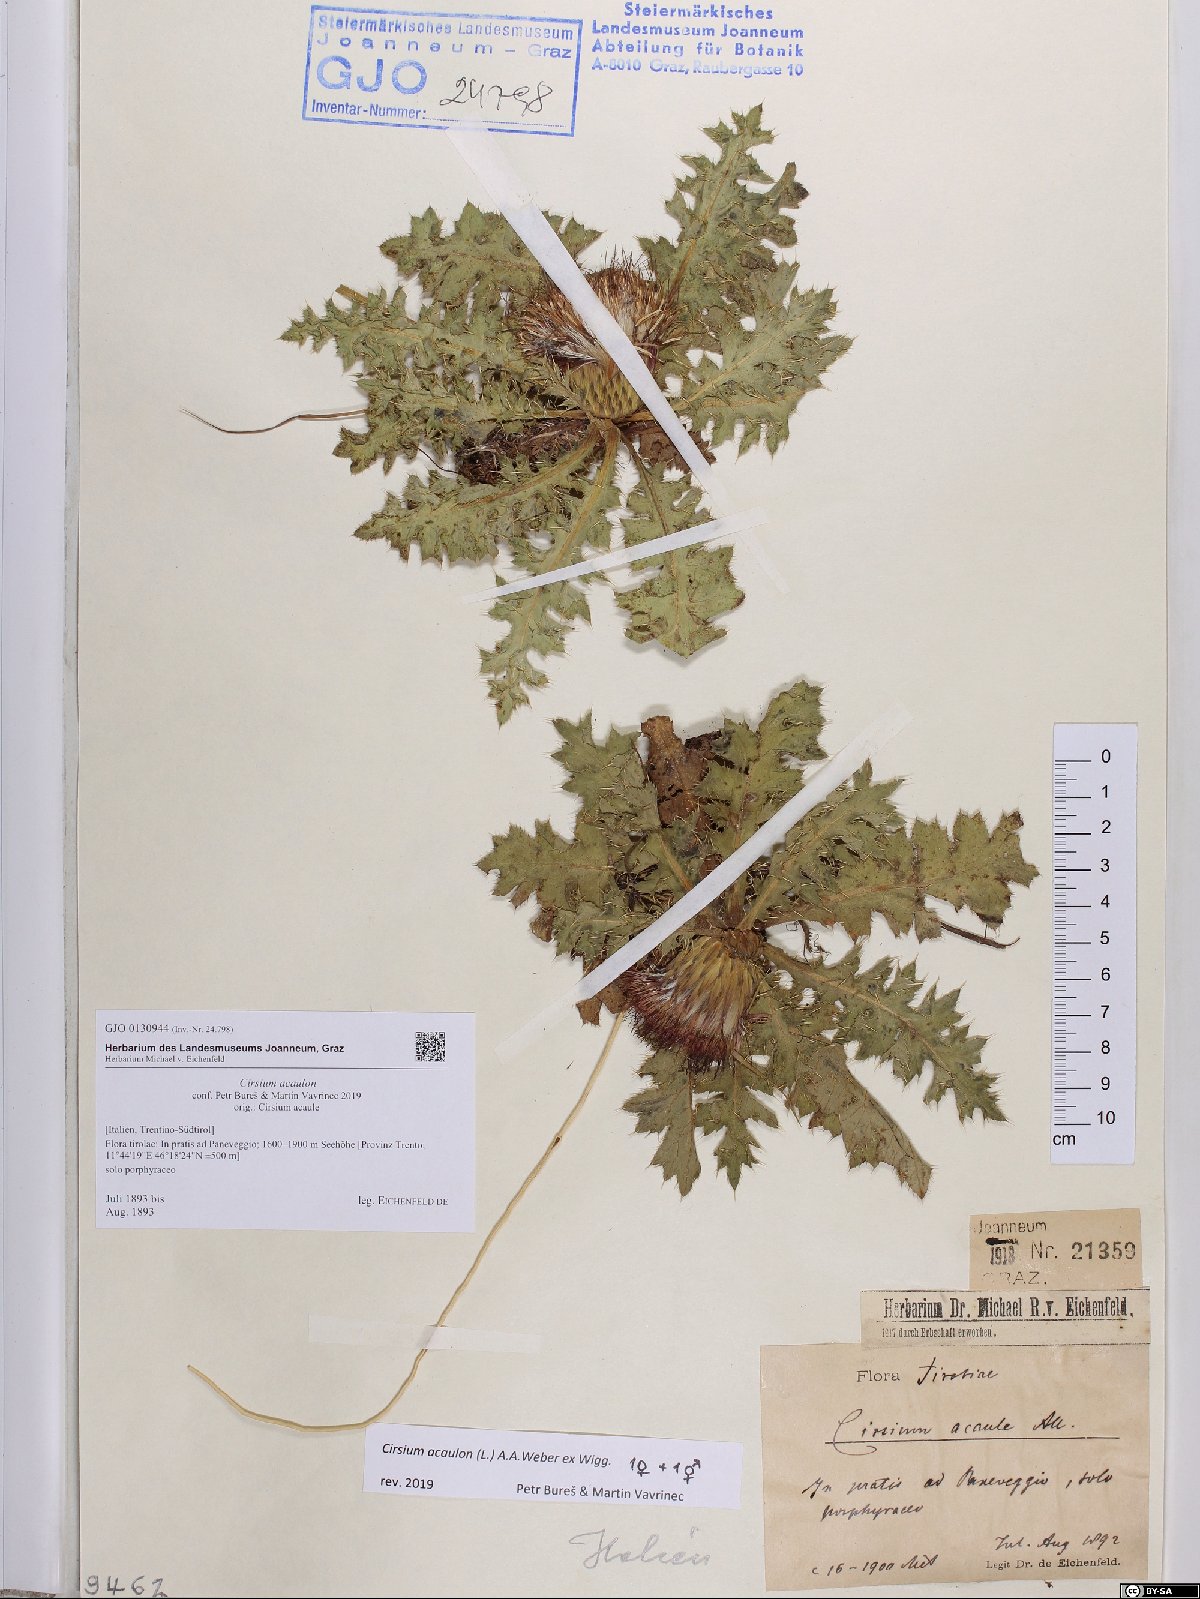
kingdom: Plantae
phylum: Tracheophyta
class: Magnoliopsida
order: Asterales
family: Asteraceae
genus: Cirsium
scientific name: Cirsium acaulon
